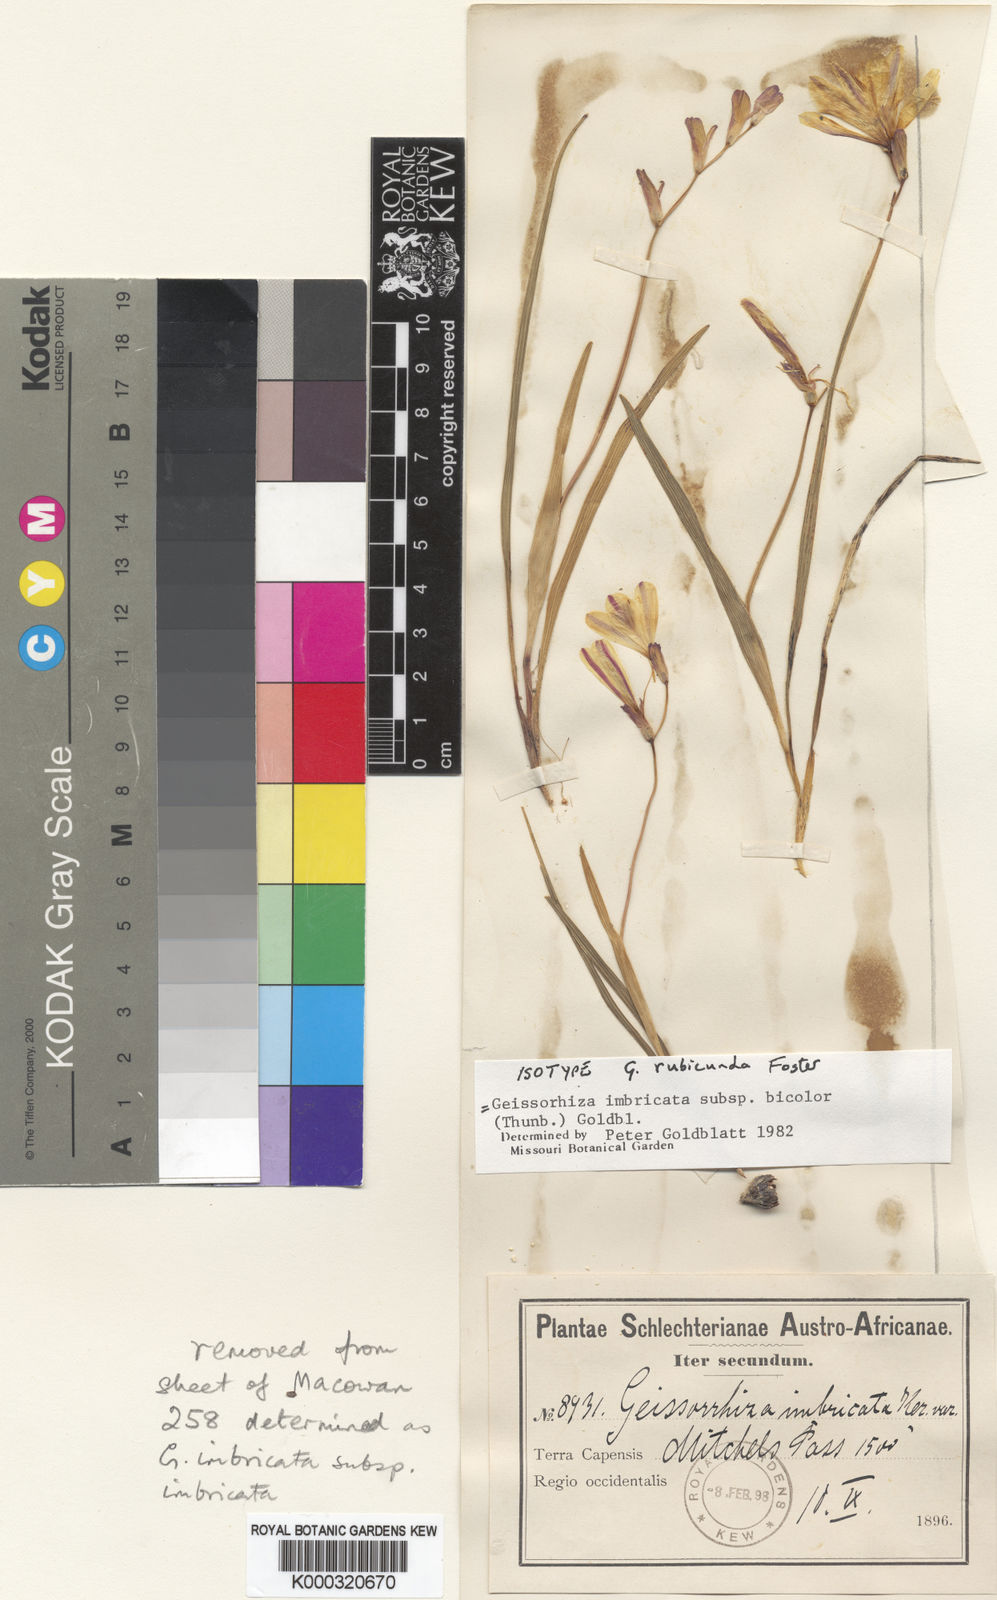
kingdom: Plantae
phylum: Tracheophyta
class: Liliopsida
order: Asparagales
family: Iridaceae
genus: Geissorhiza
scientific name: Geissorhiza imbricata
